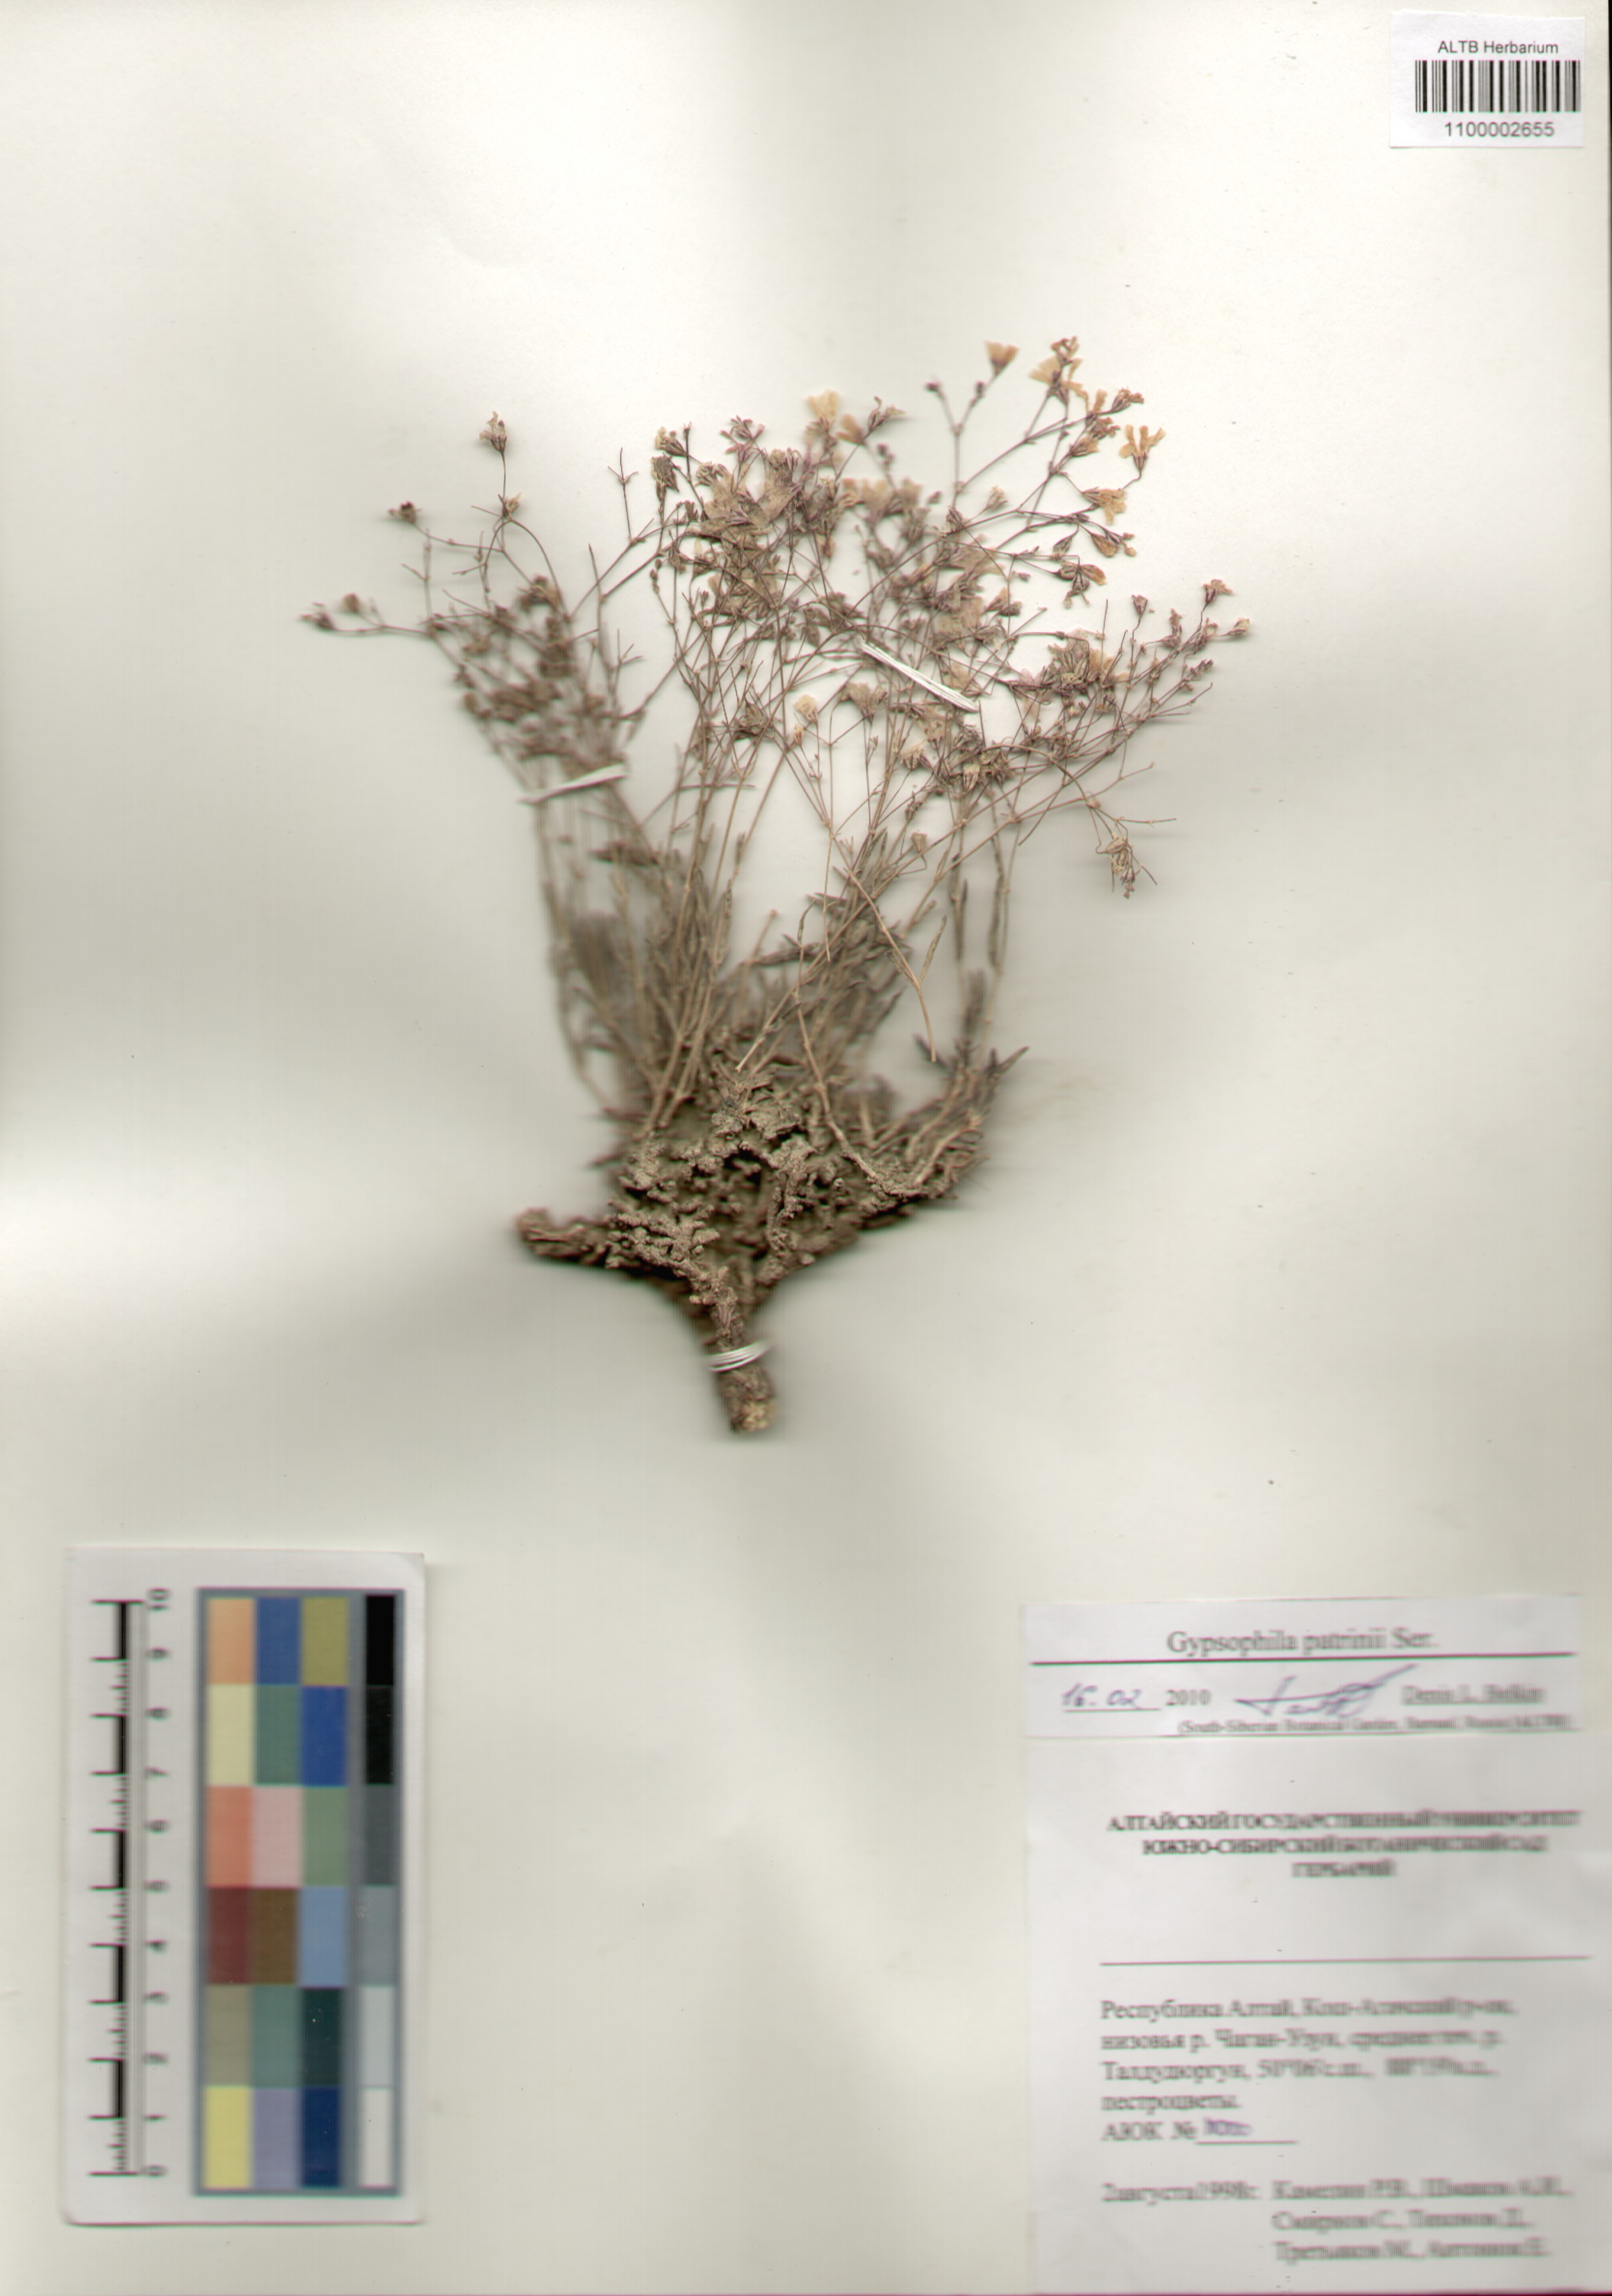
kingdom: Plantae
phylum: Tracheophyta
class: Magnoliopsida
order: Caryophyllales
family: Caryophyllaceae
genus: Gypsophila
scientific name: Gypsophila patrinii
